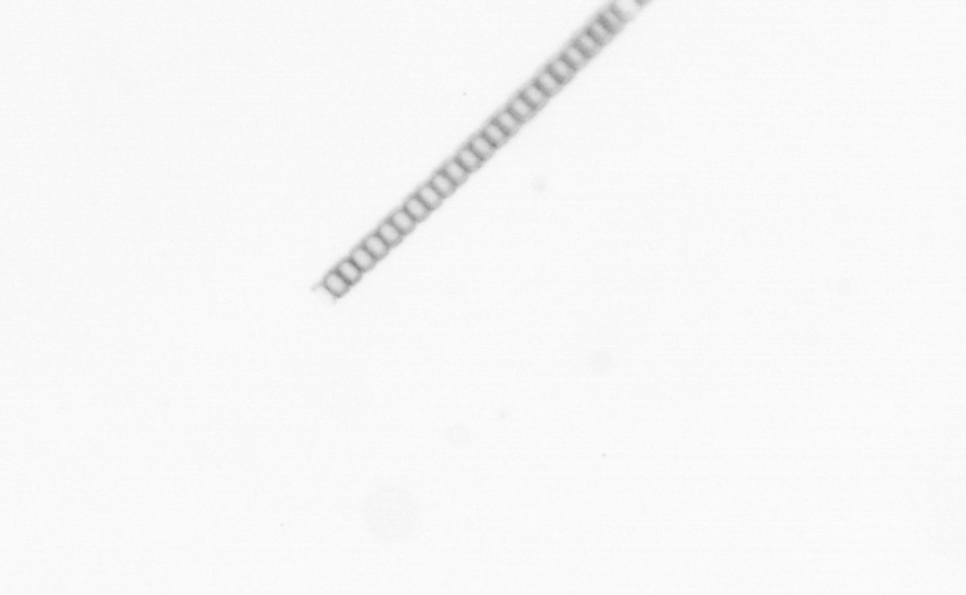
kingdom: Chromista
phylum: Ochrophyta
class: Bacillariophyceae
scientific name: Bacillariophyceae
